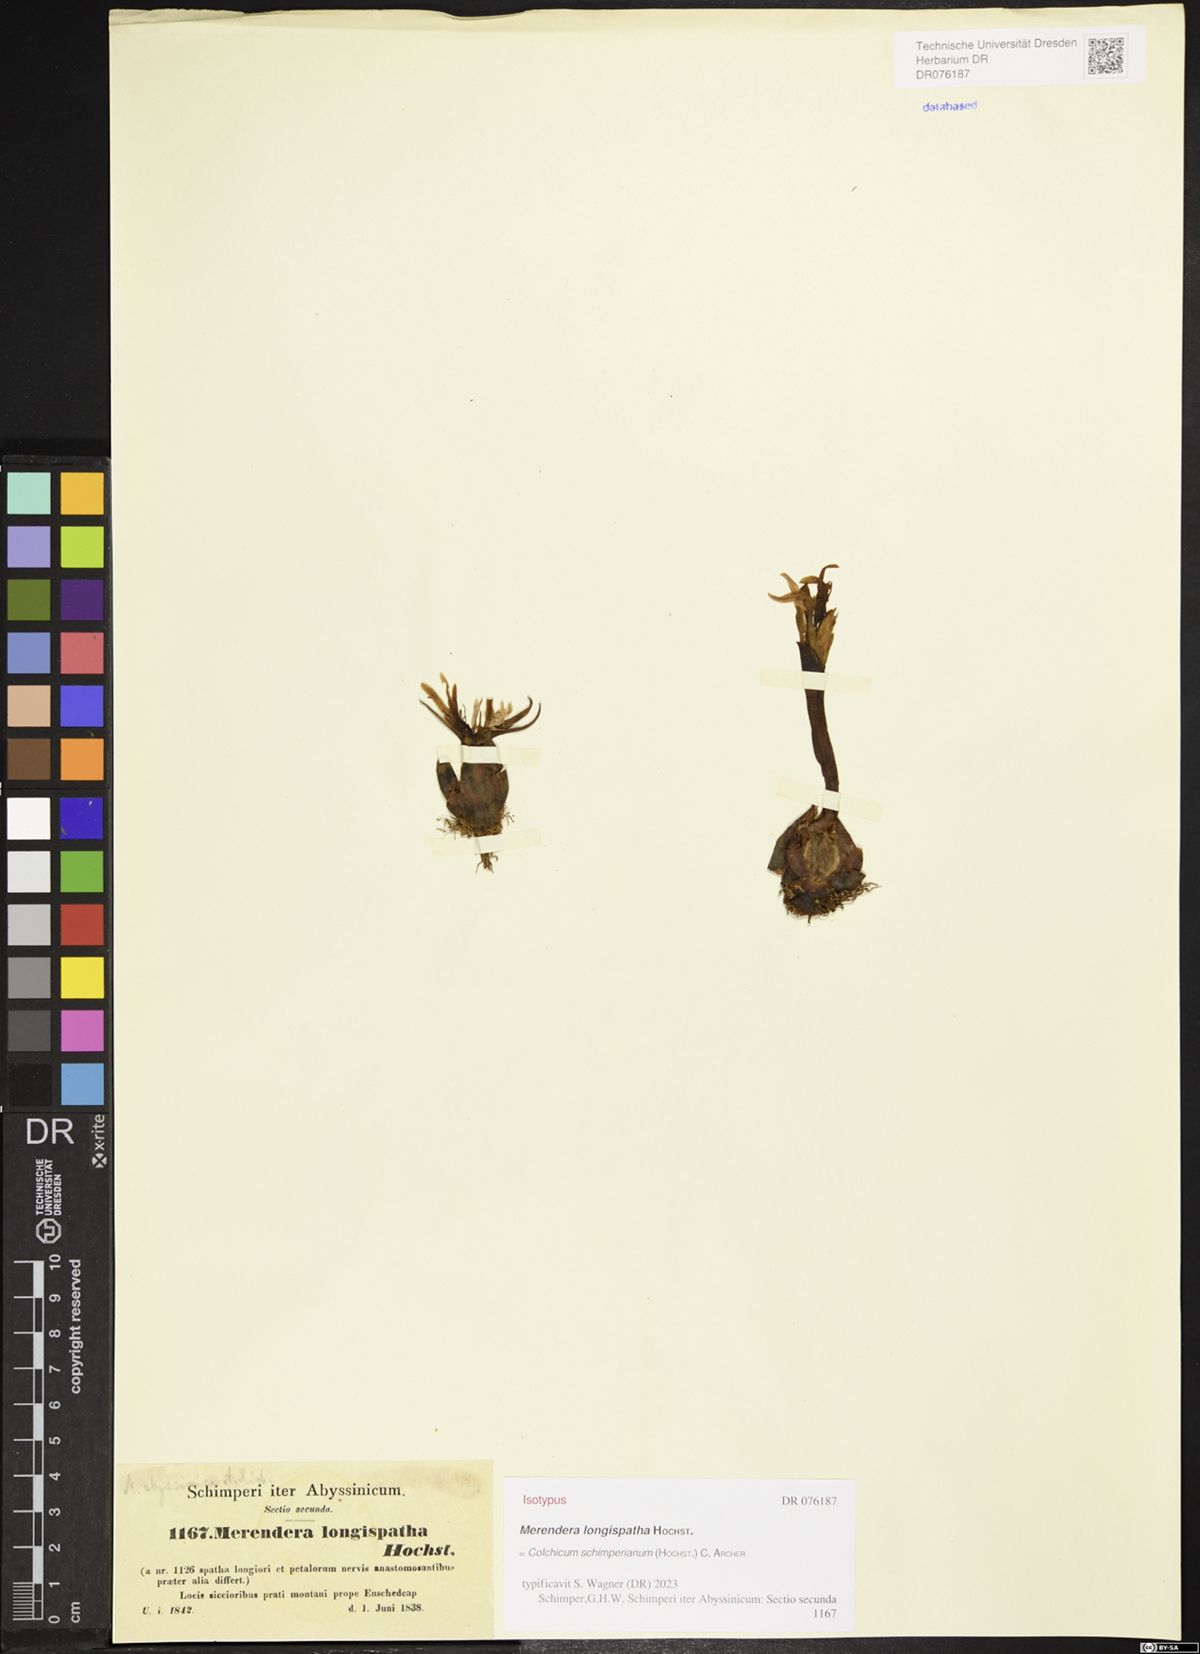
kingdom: Plantae
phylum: Tracheophyta
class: Liliopsida
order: Liliales
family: Colchicaceae
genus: Colchicum
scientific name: Colchicum schimperianum
